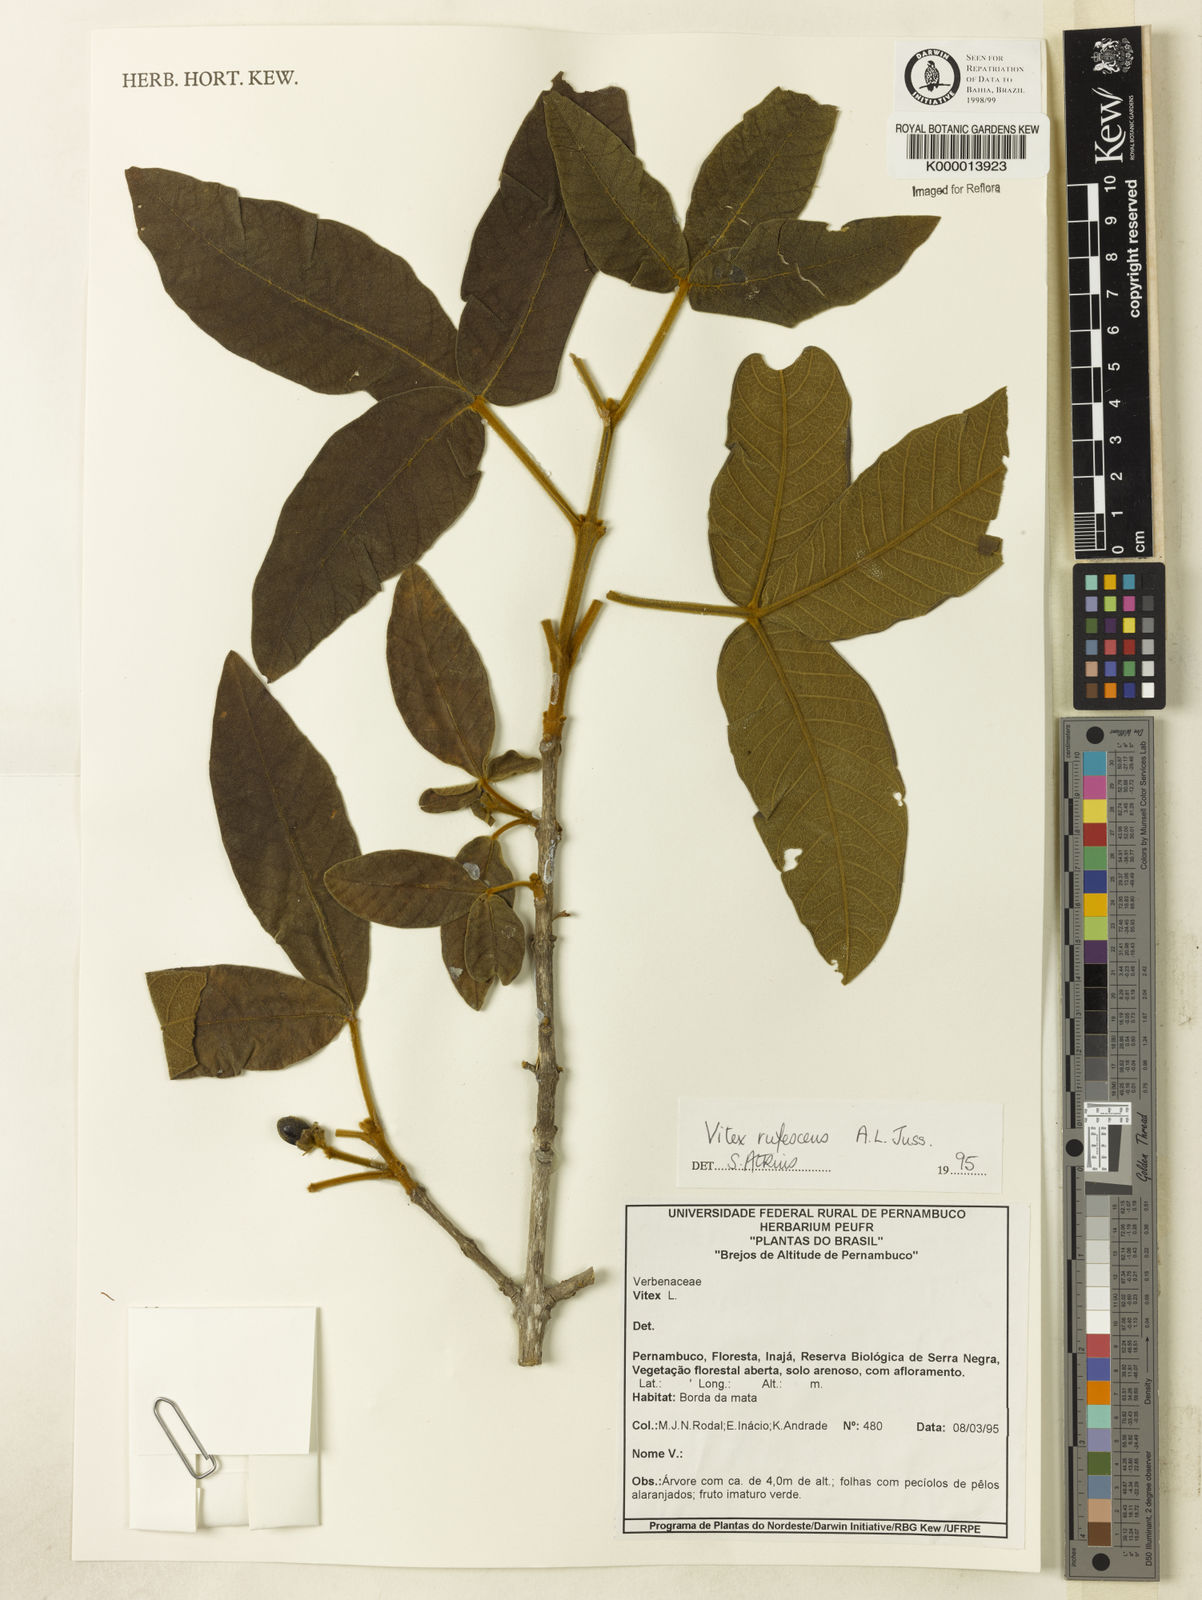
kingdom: Plantae
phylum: Tracheophyta
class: Magnoliopsida
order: Lamiales
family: Lamiaceae
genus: Vitex
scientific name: Vitex rufescens
